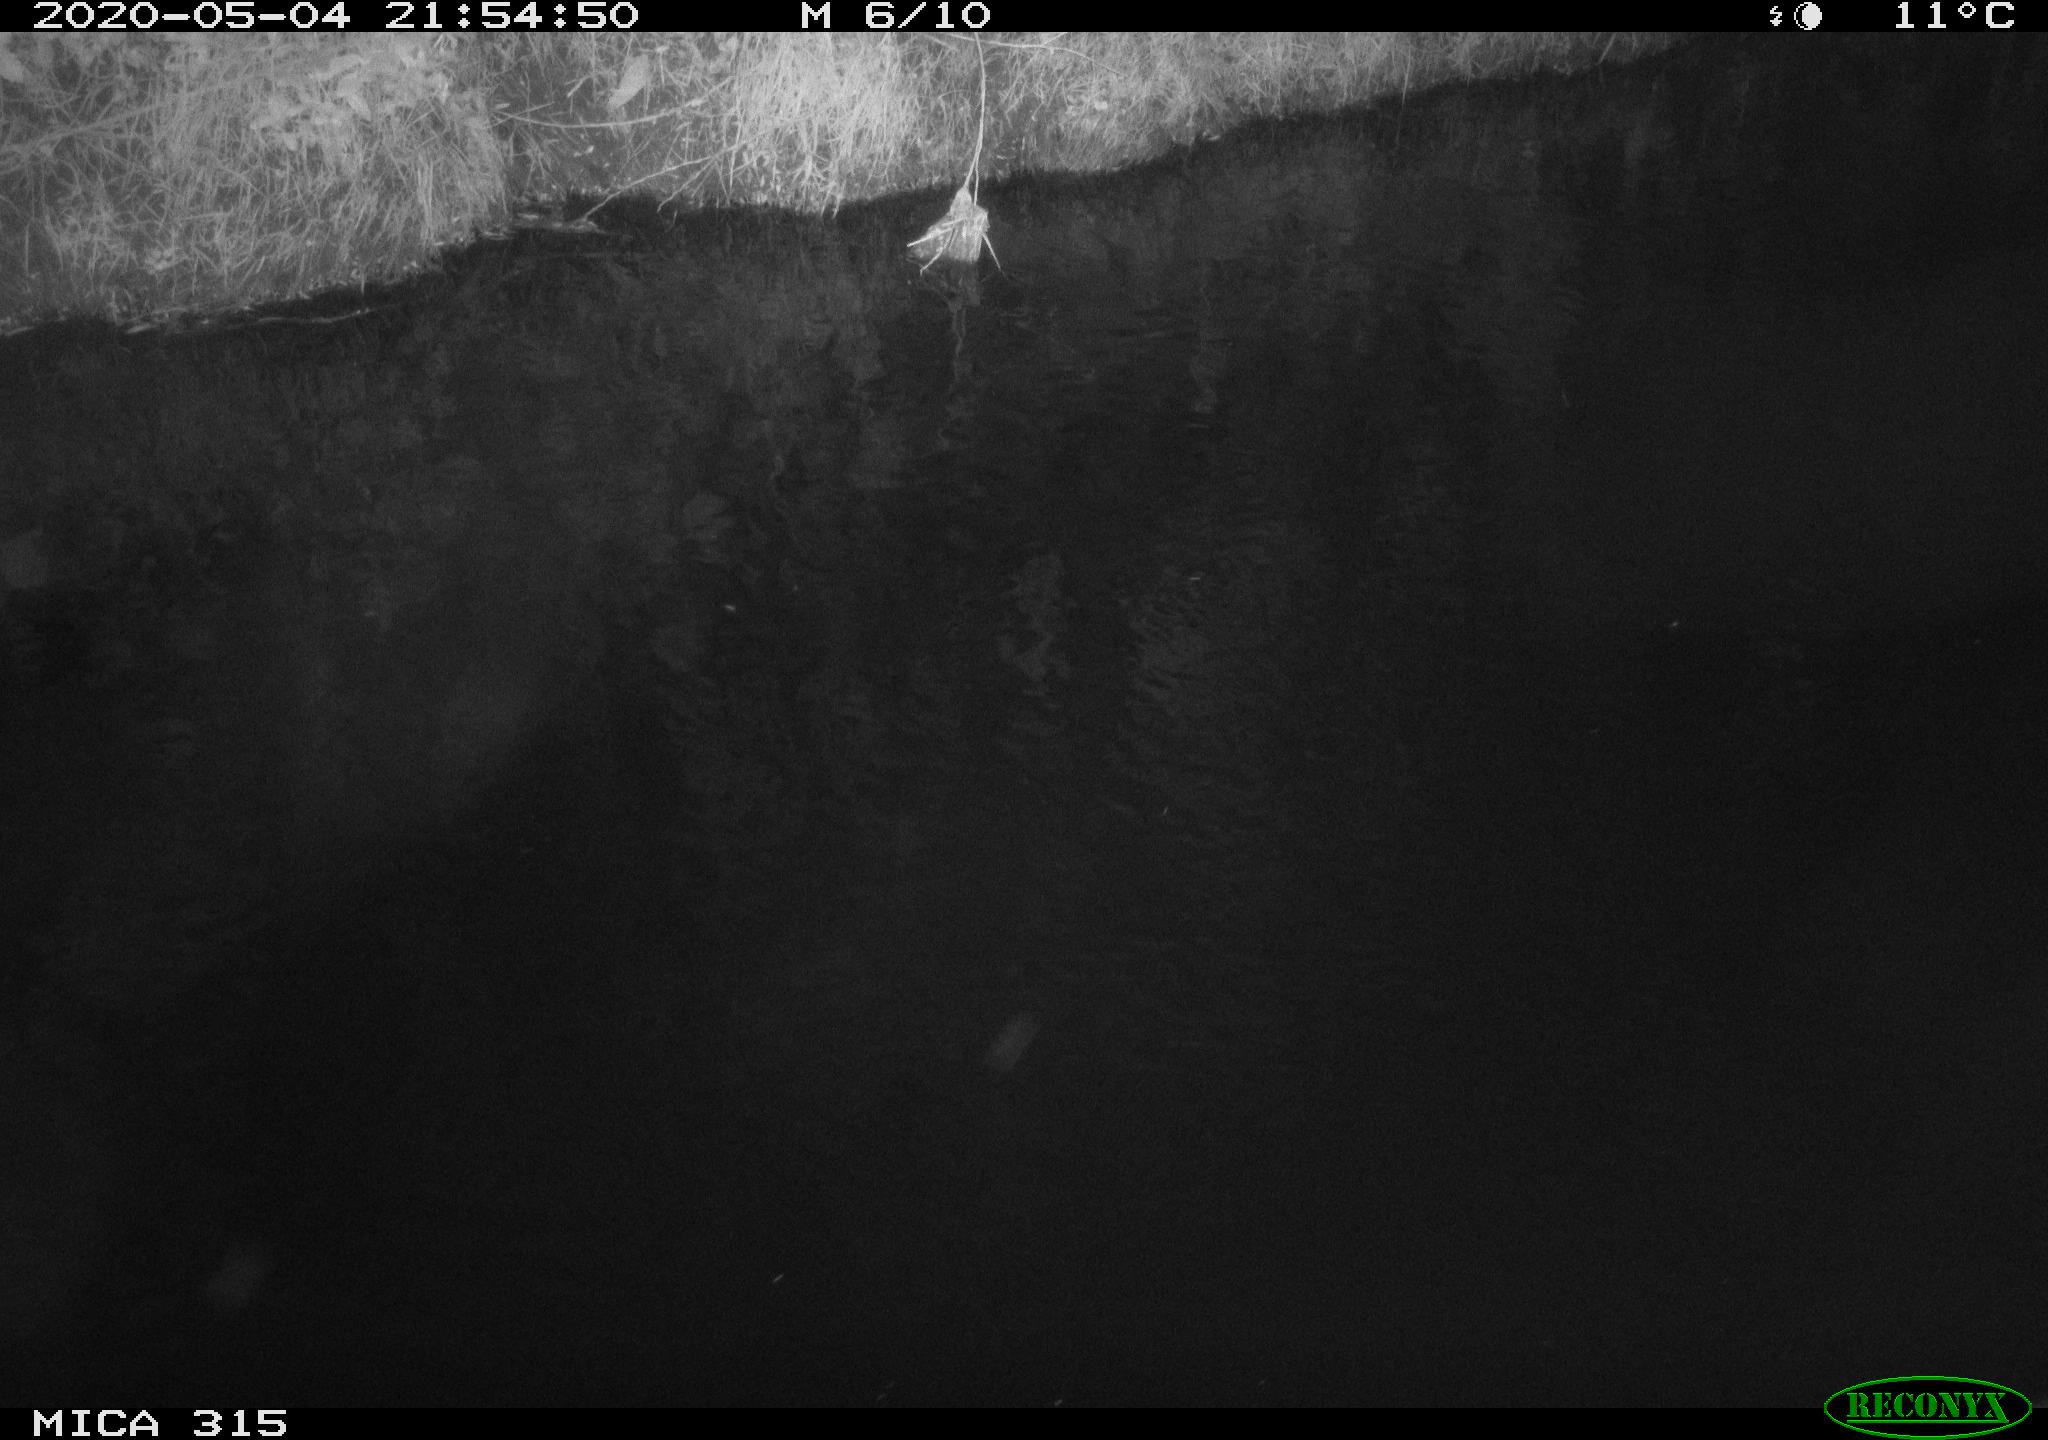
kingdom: Animalia
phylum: Chordata
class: Aves
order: Anseriformes
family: Anatidae
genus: Anas
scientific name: Anas platyrhynchos
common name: Mallard
